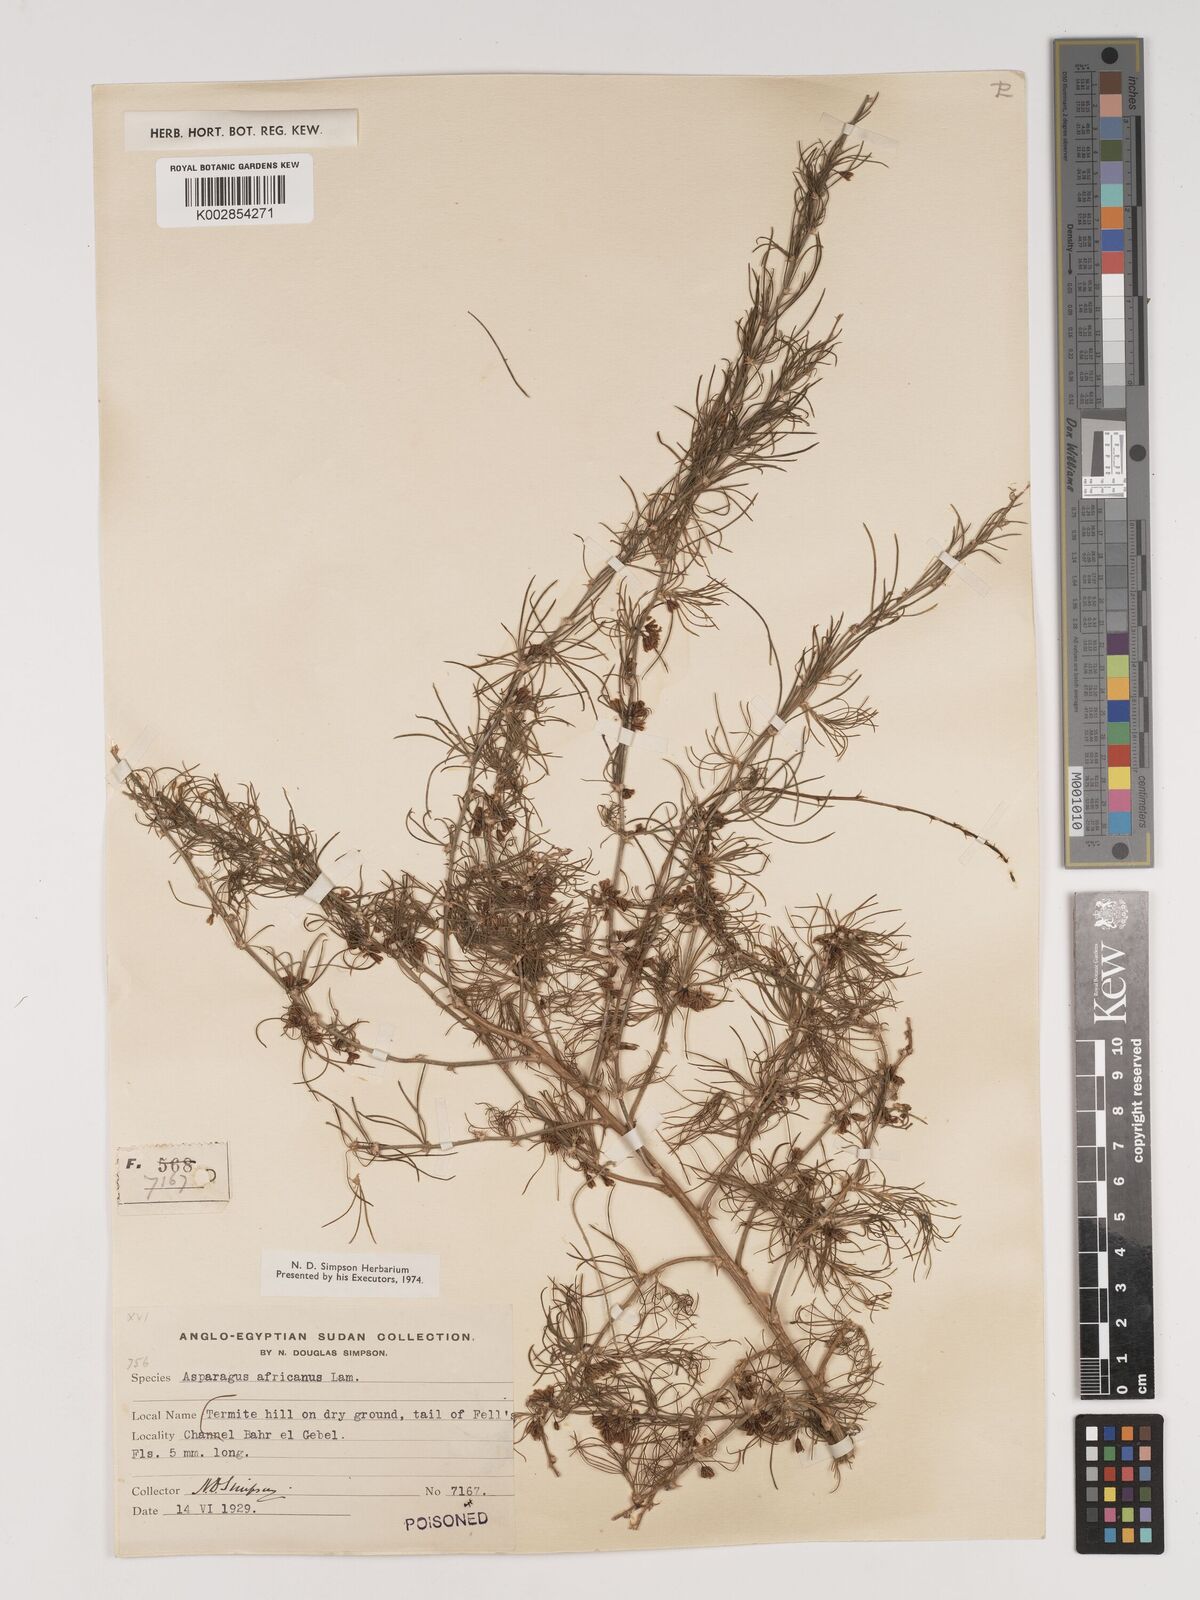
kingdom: Plantae
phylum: Tracheophyta
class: Liliopsida
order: Asparagales
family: Asparagaceae
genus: Asparagus
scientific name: Asparagus africanus
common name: Asparagus-fern
